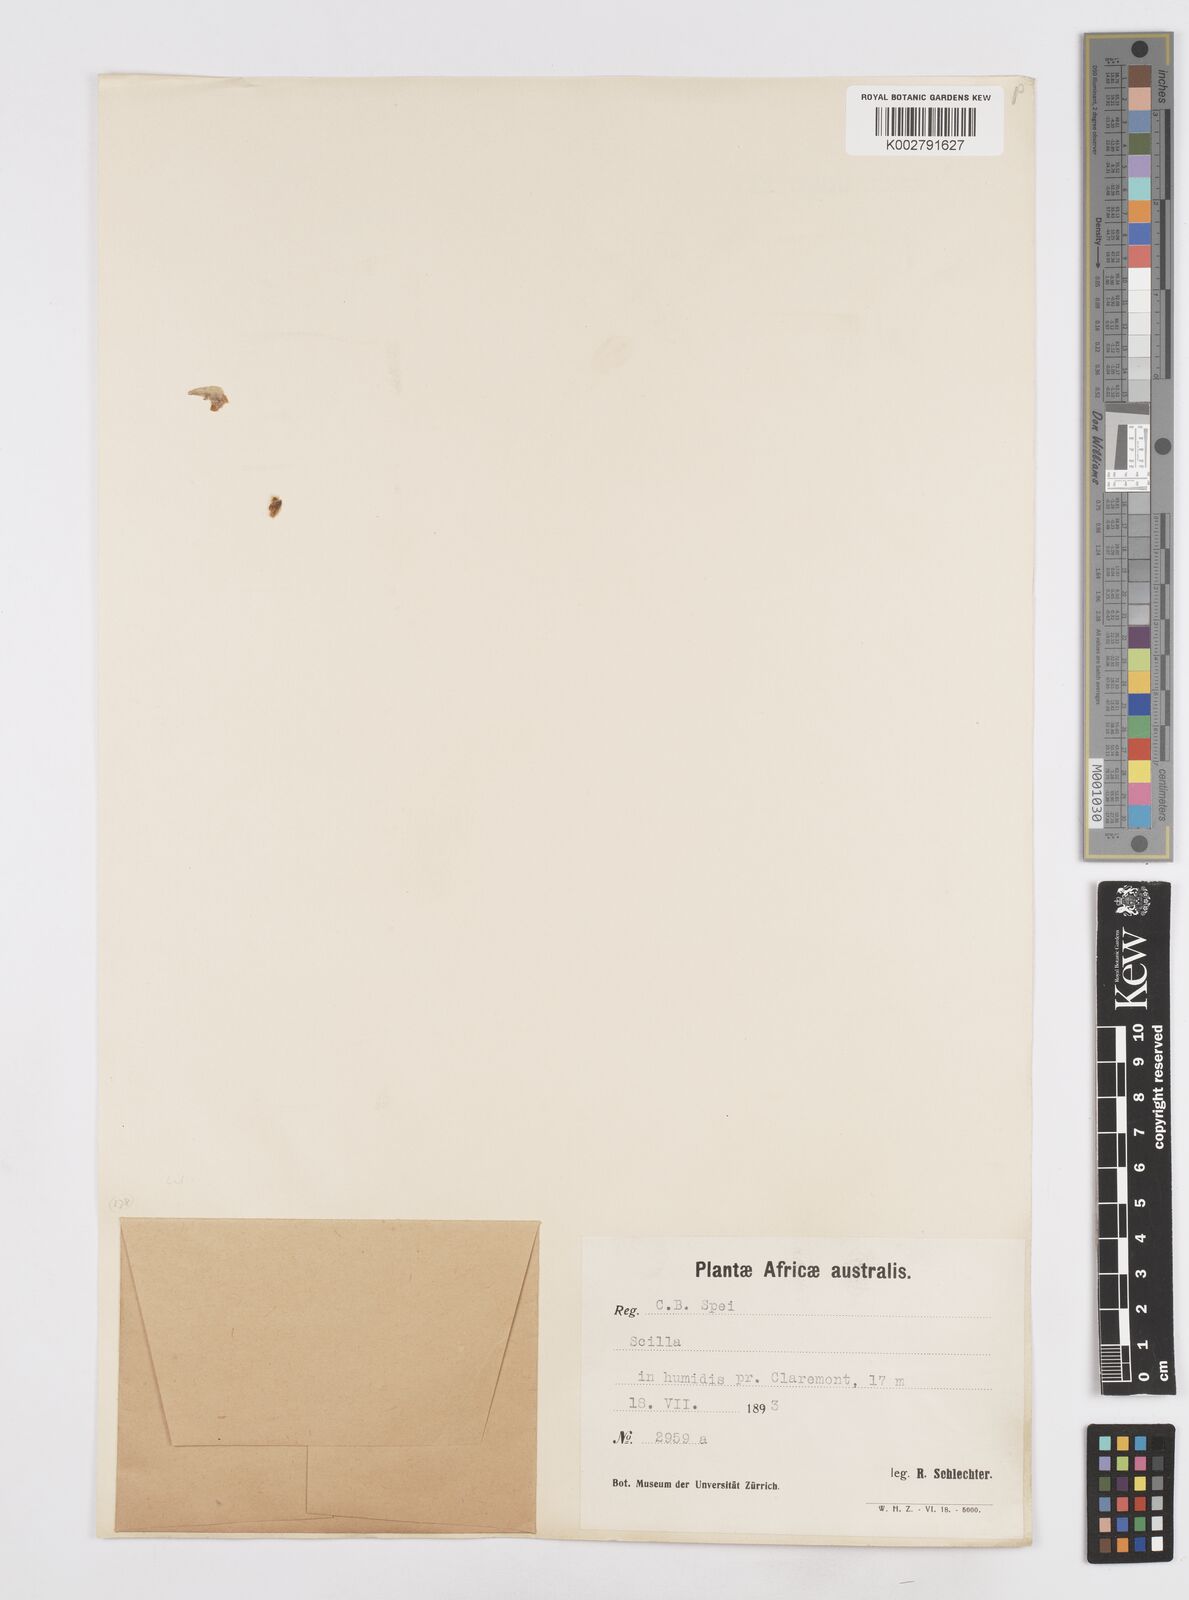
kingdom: Plantae
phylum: Tracheophyta
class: Liliopsida
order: Asparagales
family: Asparagaceae
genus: Scilla
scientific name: Scilla
